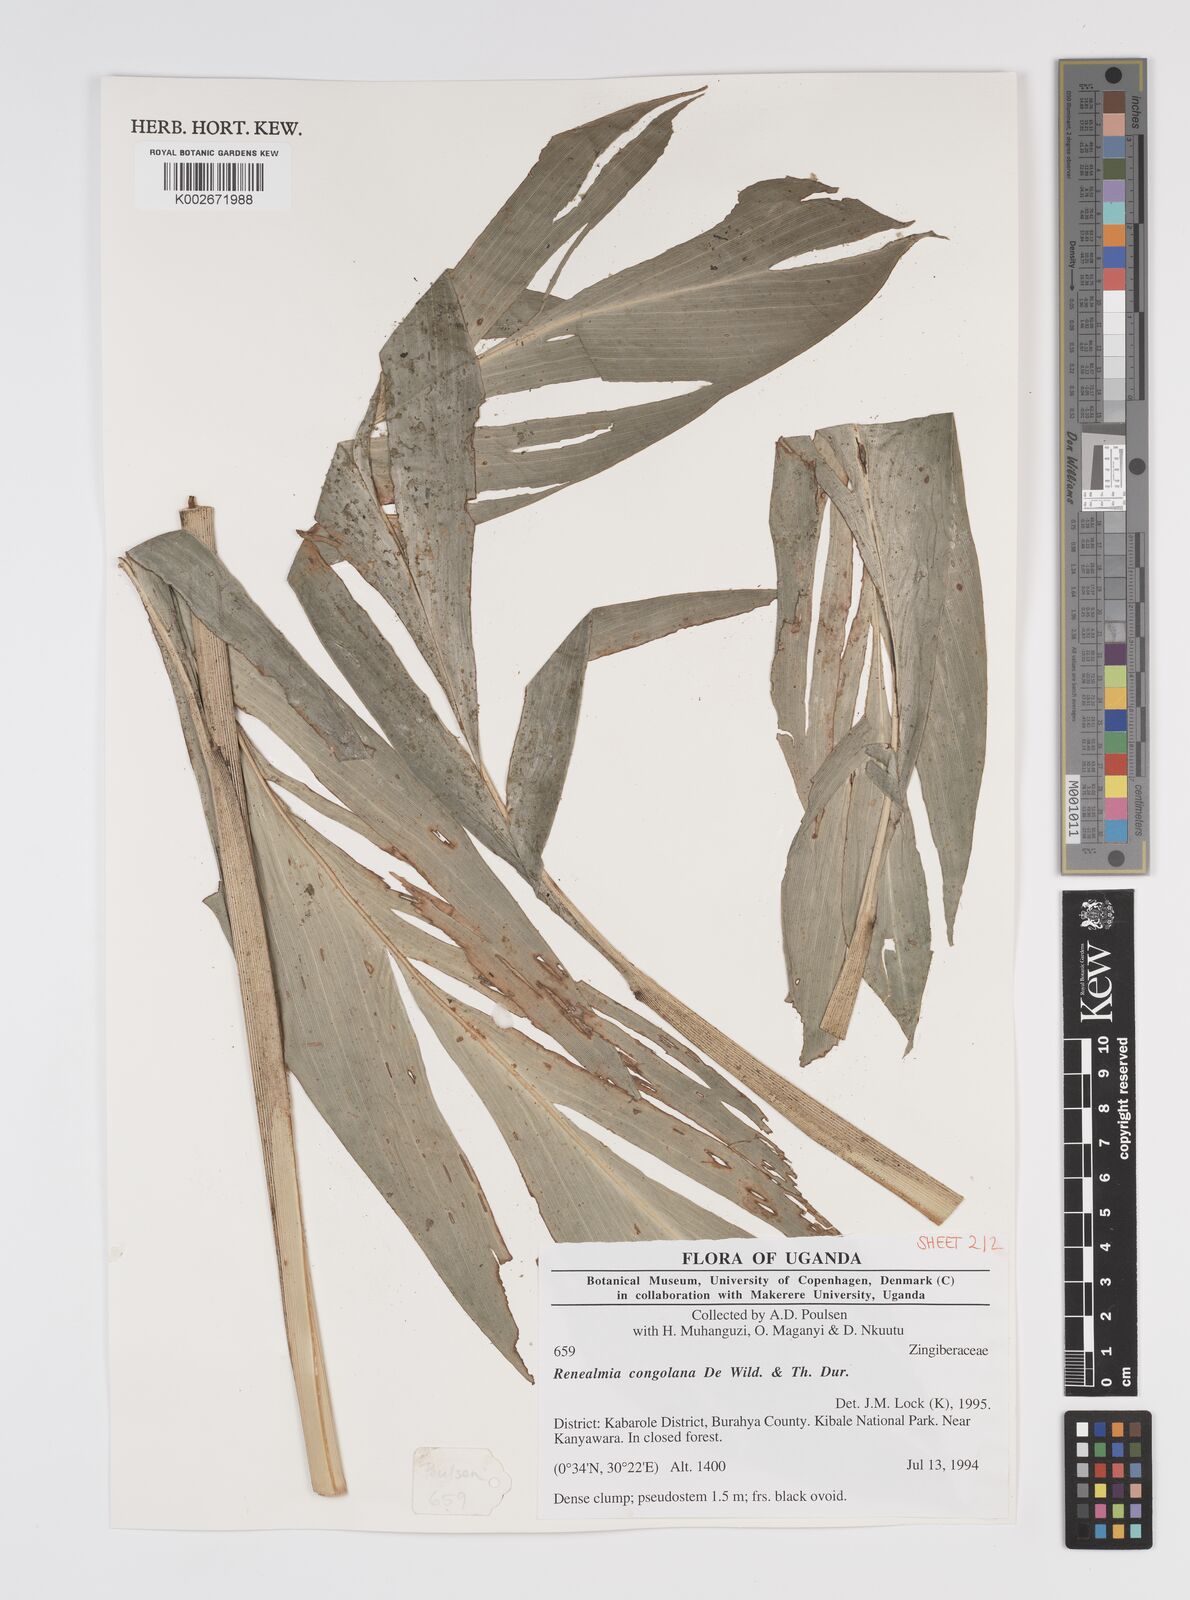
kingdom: Plantae
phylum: Tracheophyta
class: Liliopsida
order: Zingiberales
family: Zingiberaceae
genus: Renealmia
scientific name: Renealmia congolana
